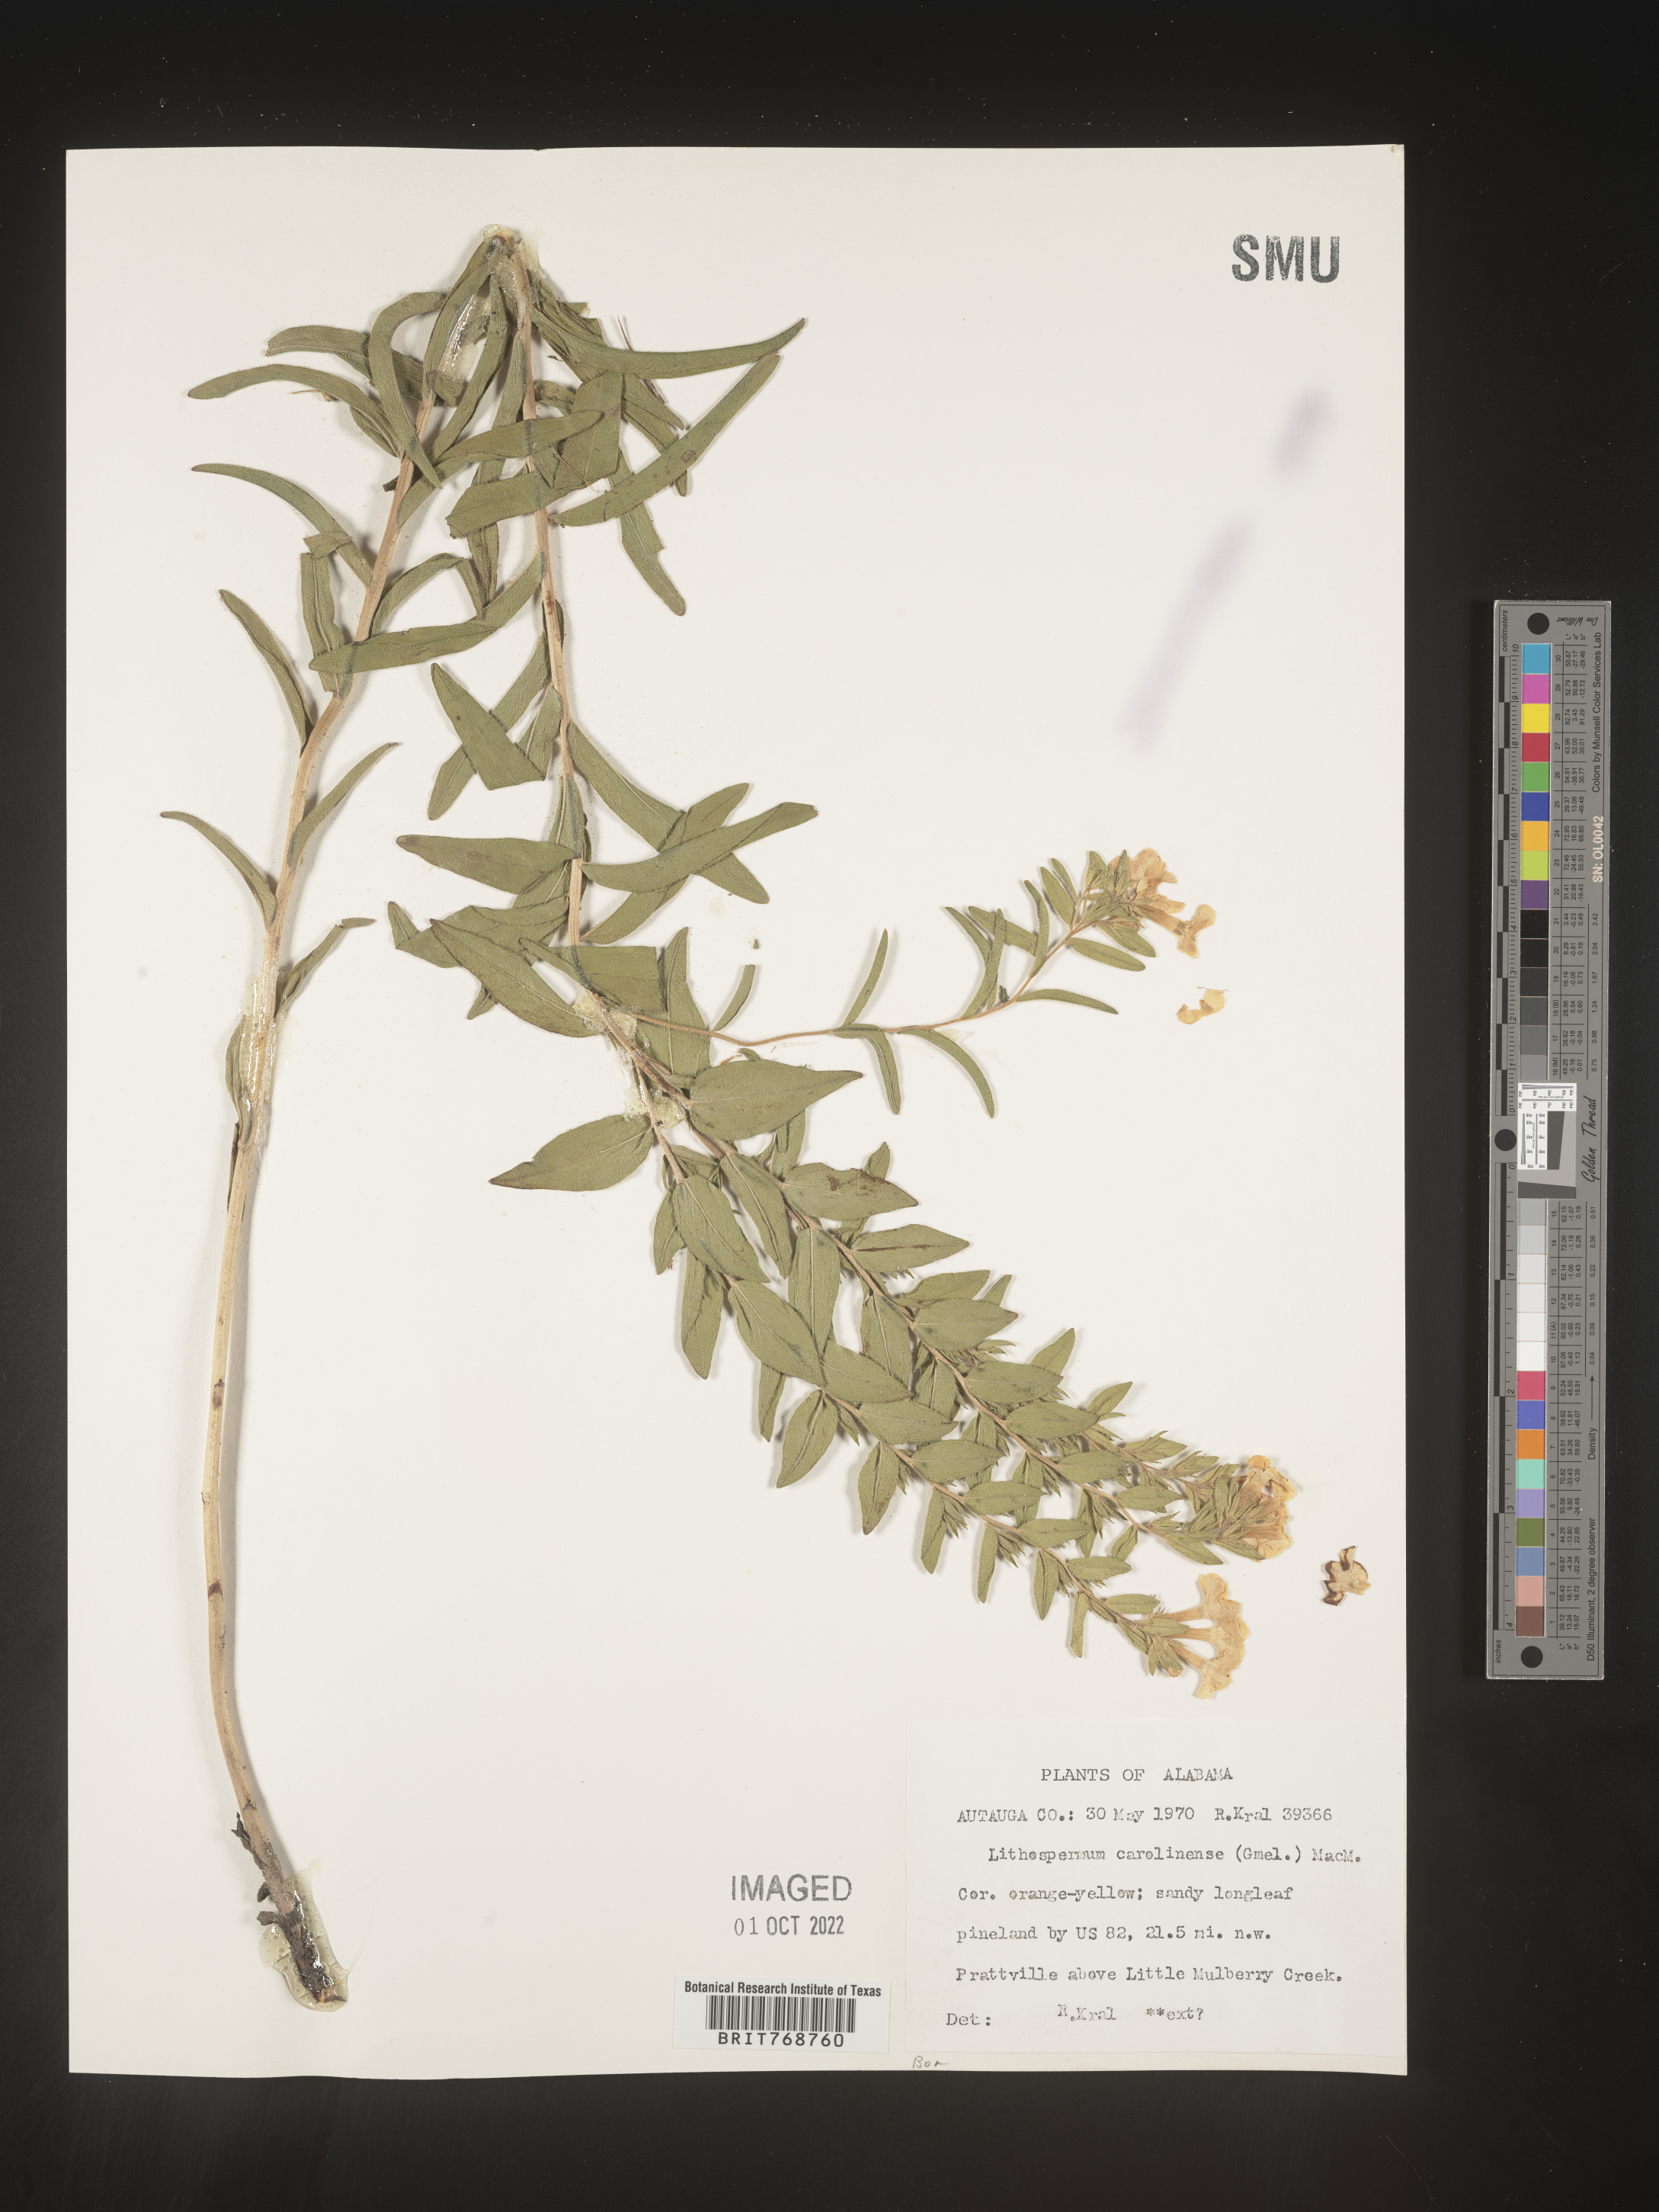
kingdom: Plantae
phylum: Tracheophyta
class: Magnoliopsida
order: Boraginales
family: Boraginaceae
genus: Lithospermum
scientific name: Lithospermum caroliniense
